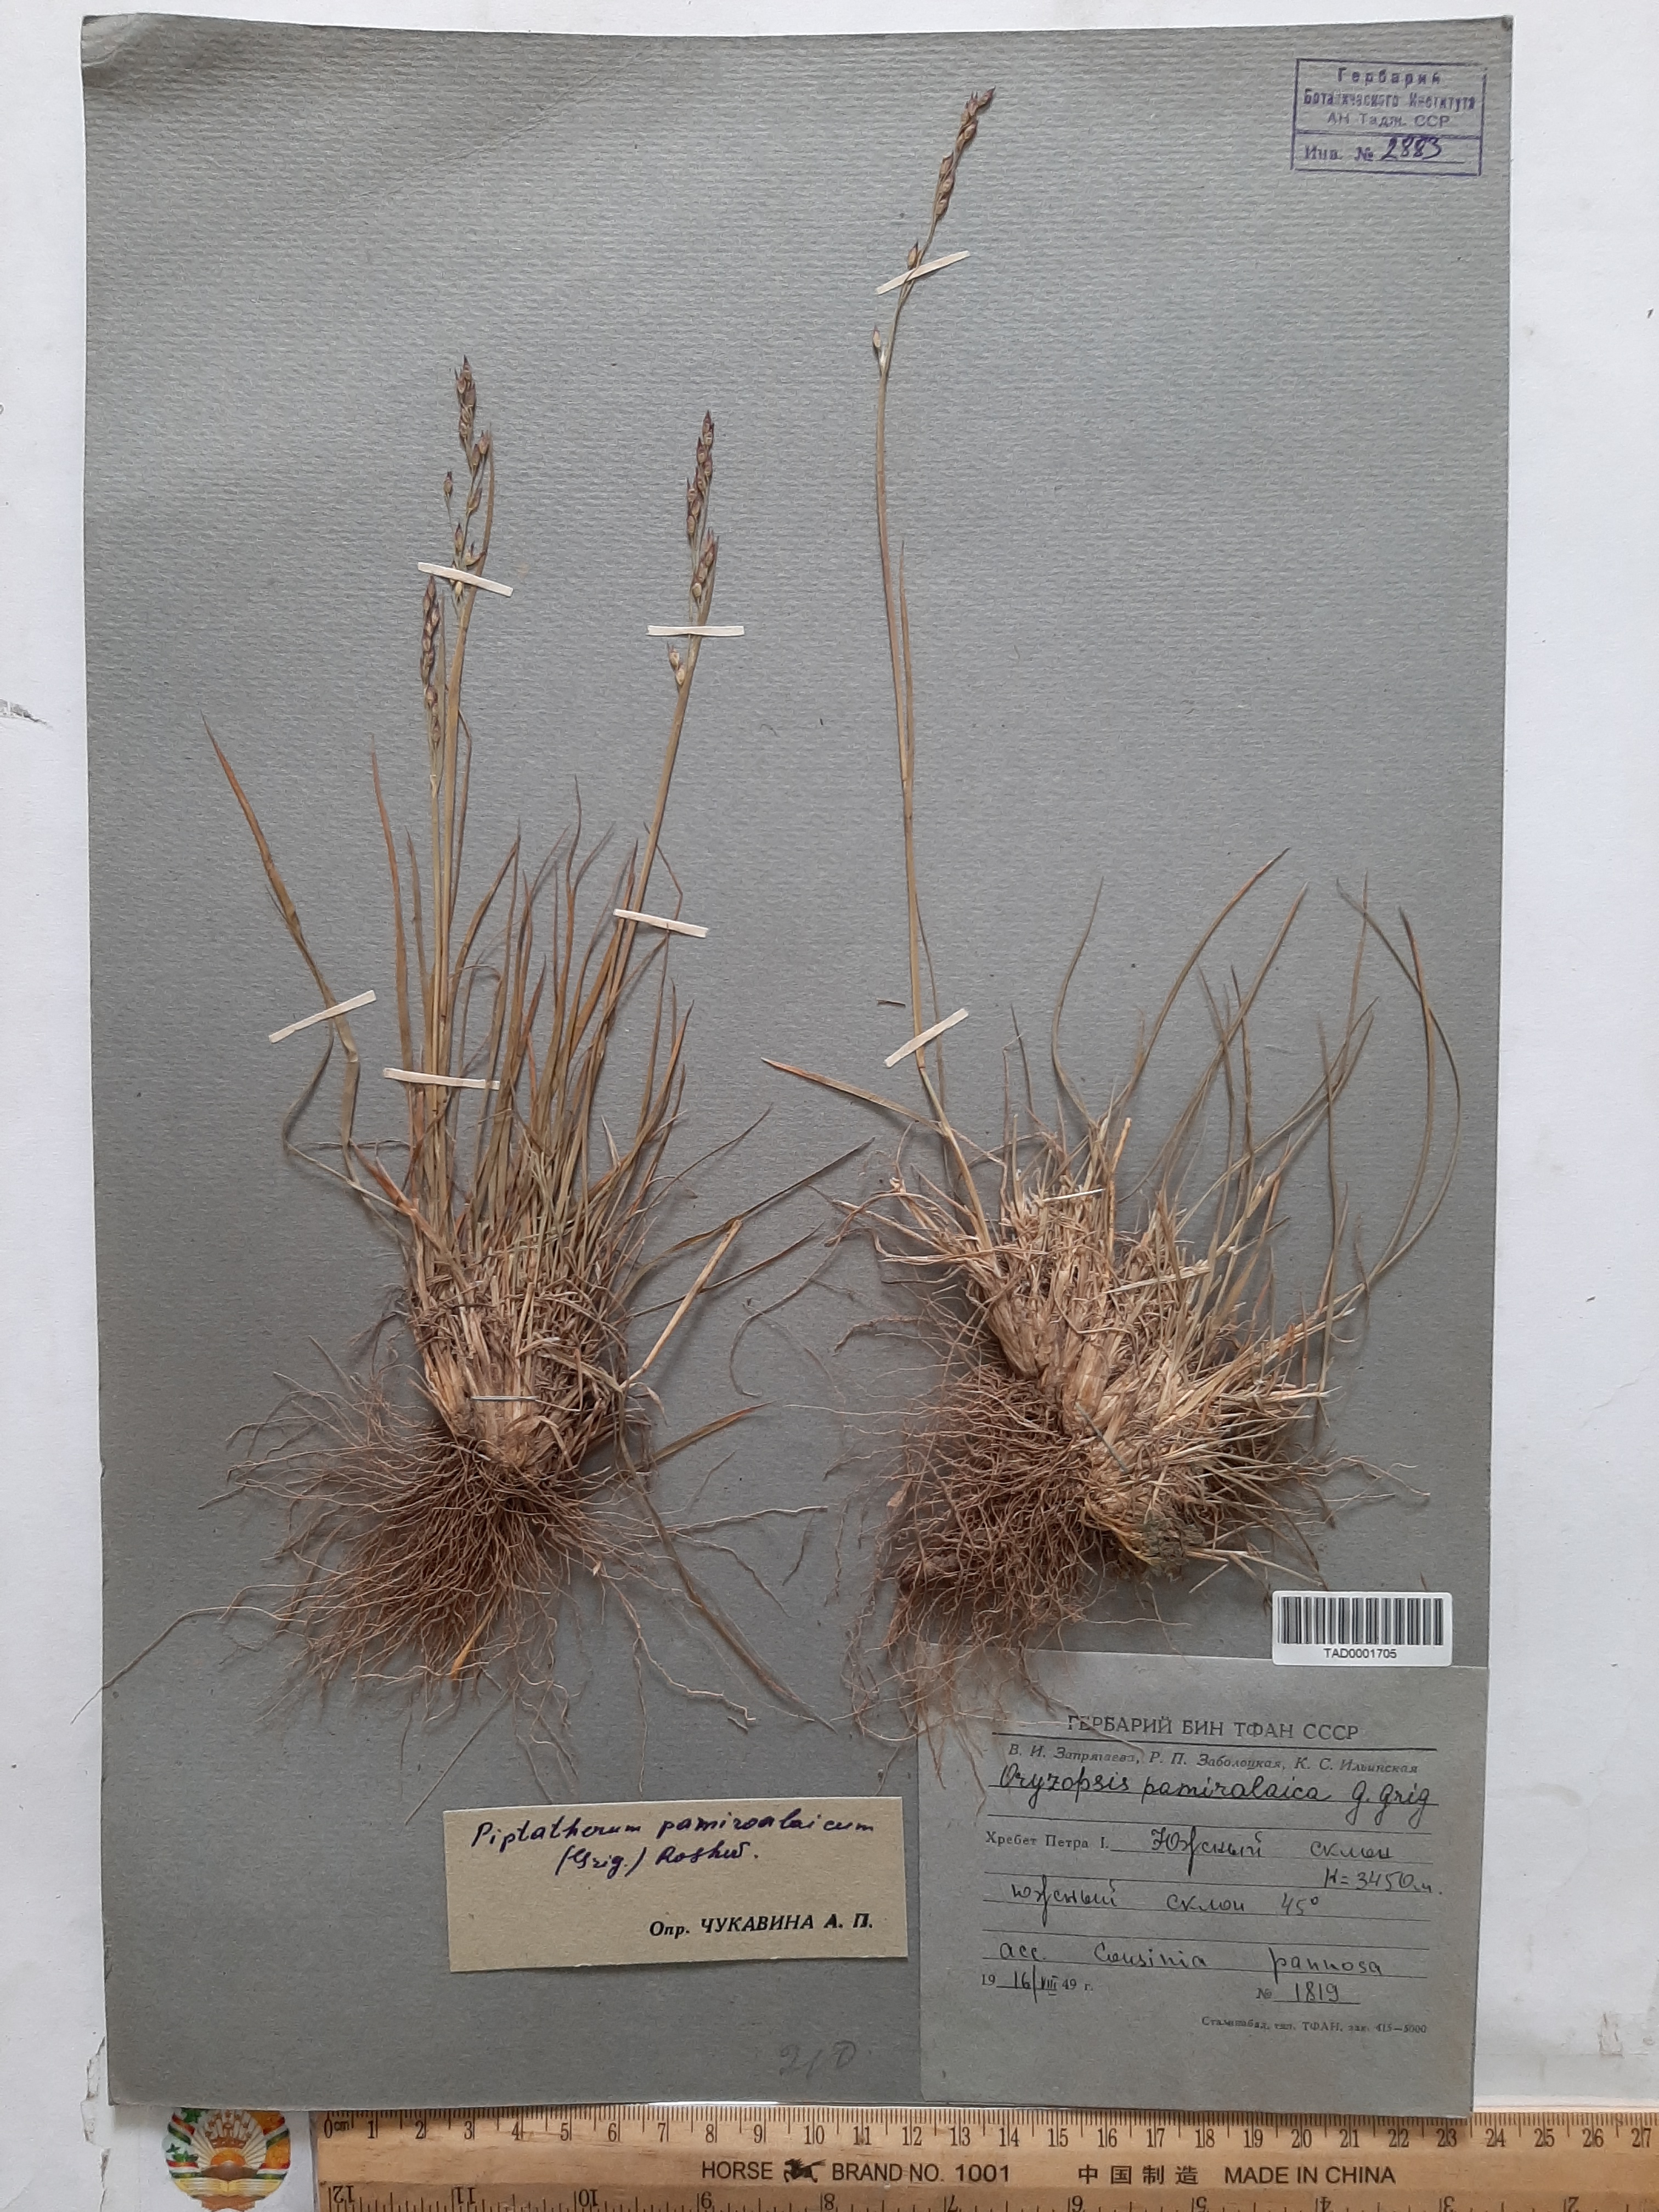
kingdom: Plantae
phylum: Tracheophyta
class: Liliopsida
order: Poales
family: Poaceae
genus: Piptatherum
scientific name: Piptatherum pamiralaicum
